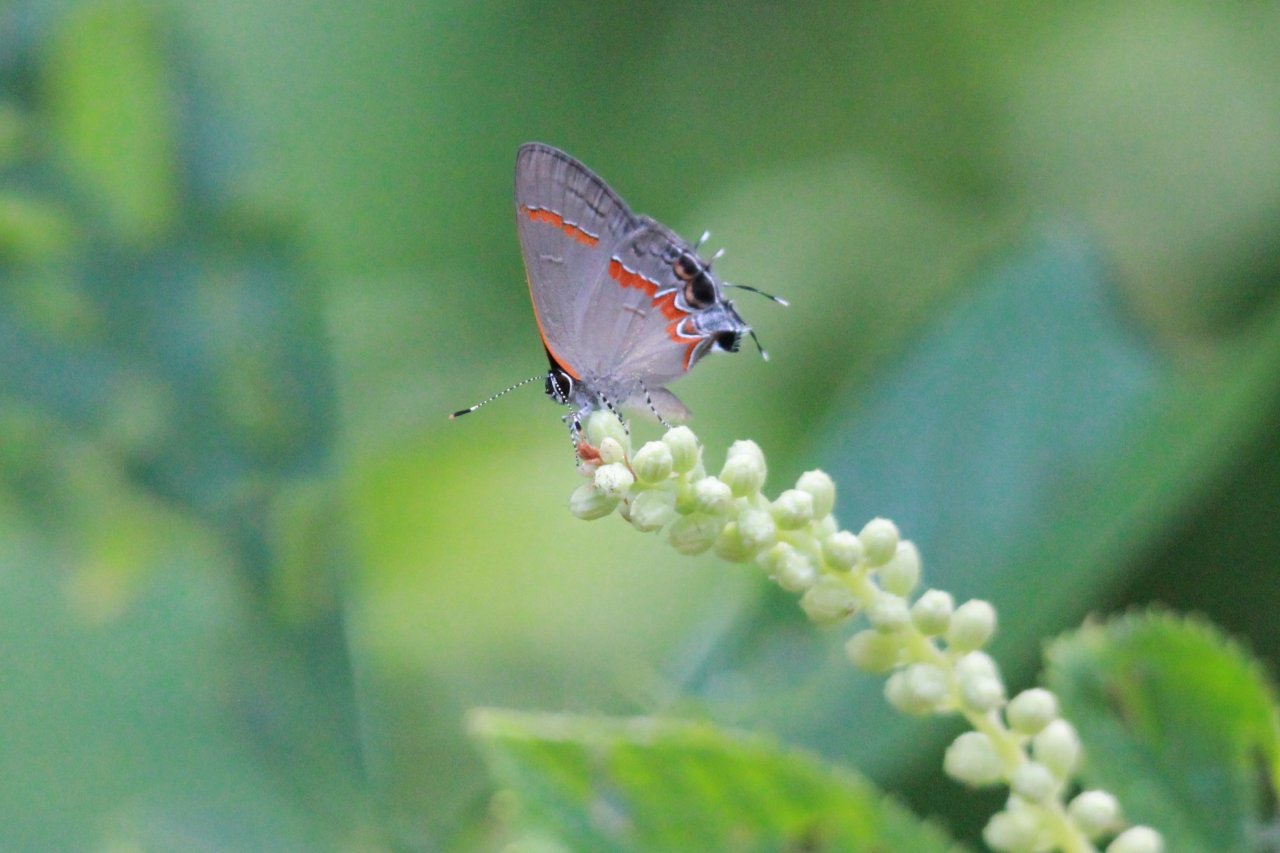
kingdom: Animalia
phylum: Arthropoda
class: Insecta
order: Lepidoptera
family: Lycaenidae
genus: Calycopis
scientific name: Calycopis cecrops
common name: Red-banded Hairstreak
